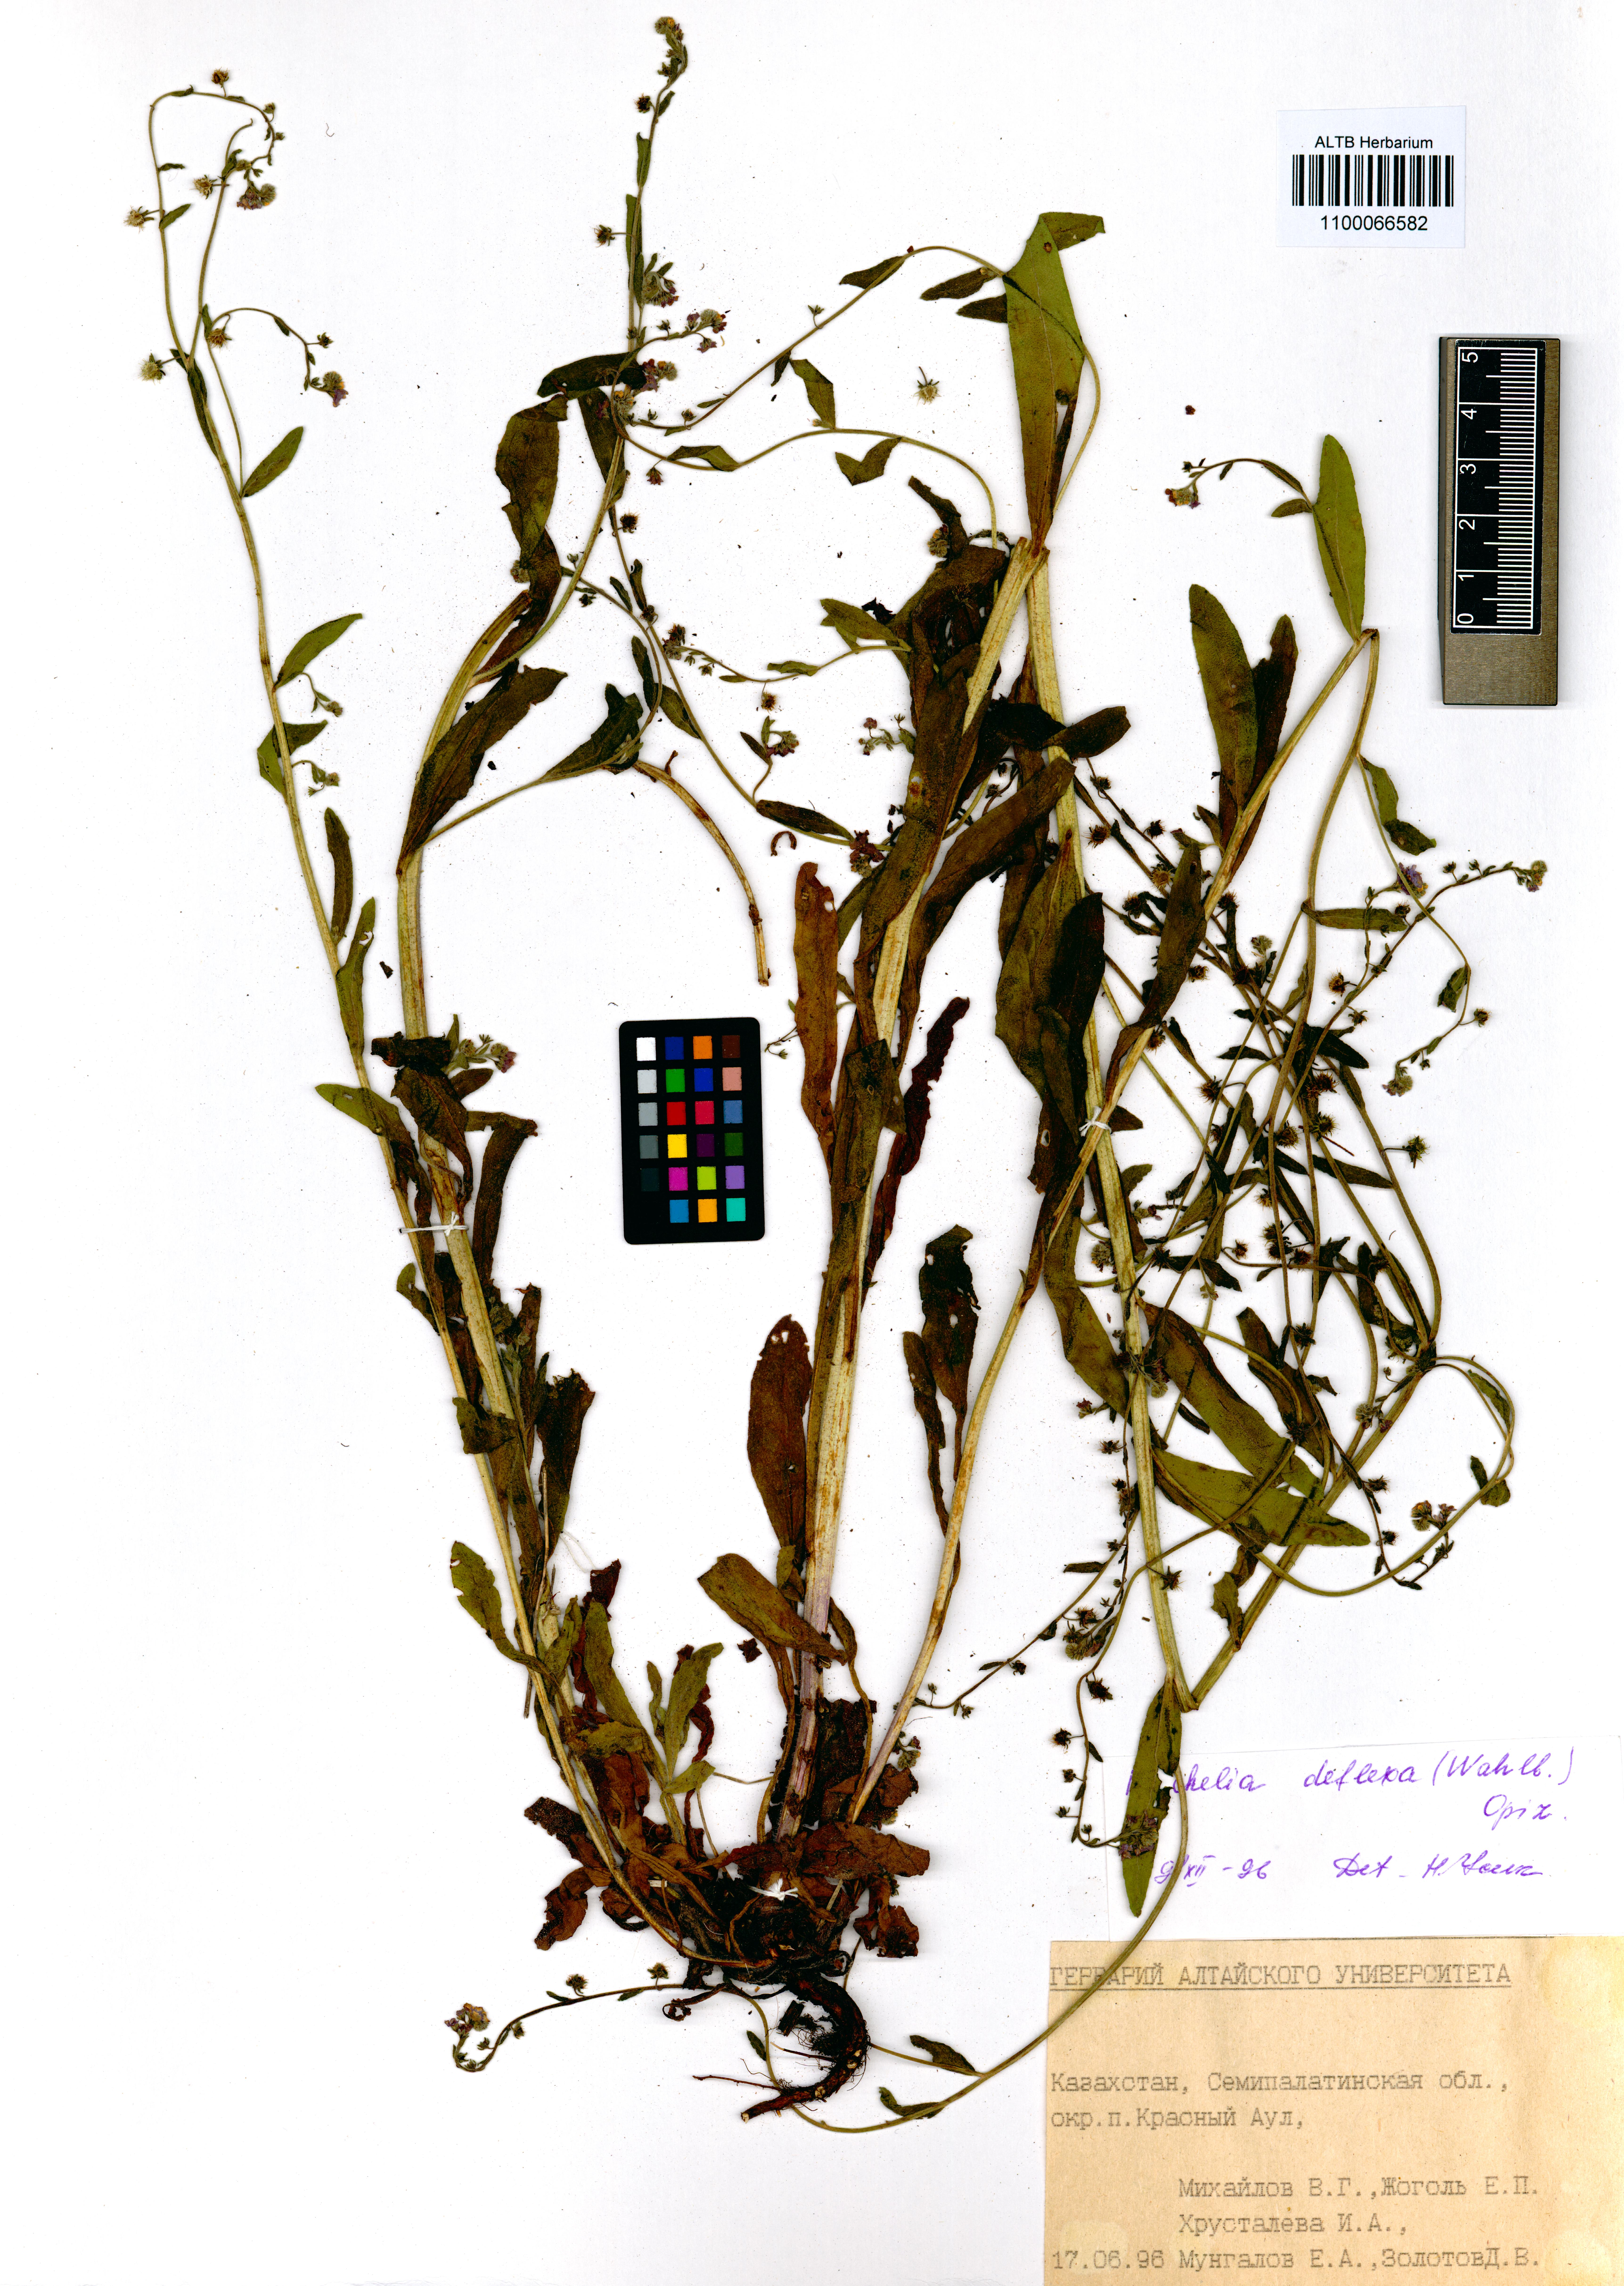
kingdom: Plantae
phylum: Tracheophyta
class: Magnoliopsida
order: Boraginales
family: Boraginaceae
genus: Hackelia
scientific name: Hackelia deflexa
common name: Nodding stickseed
